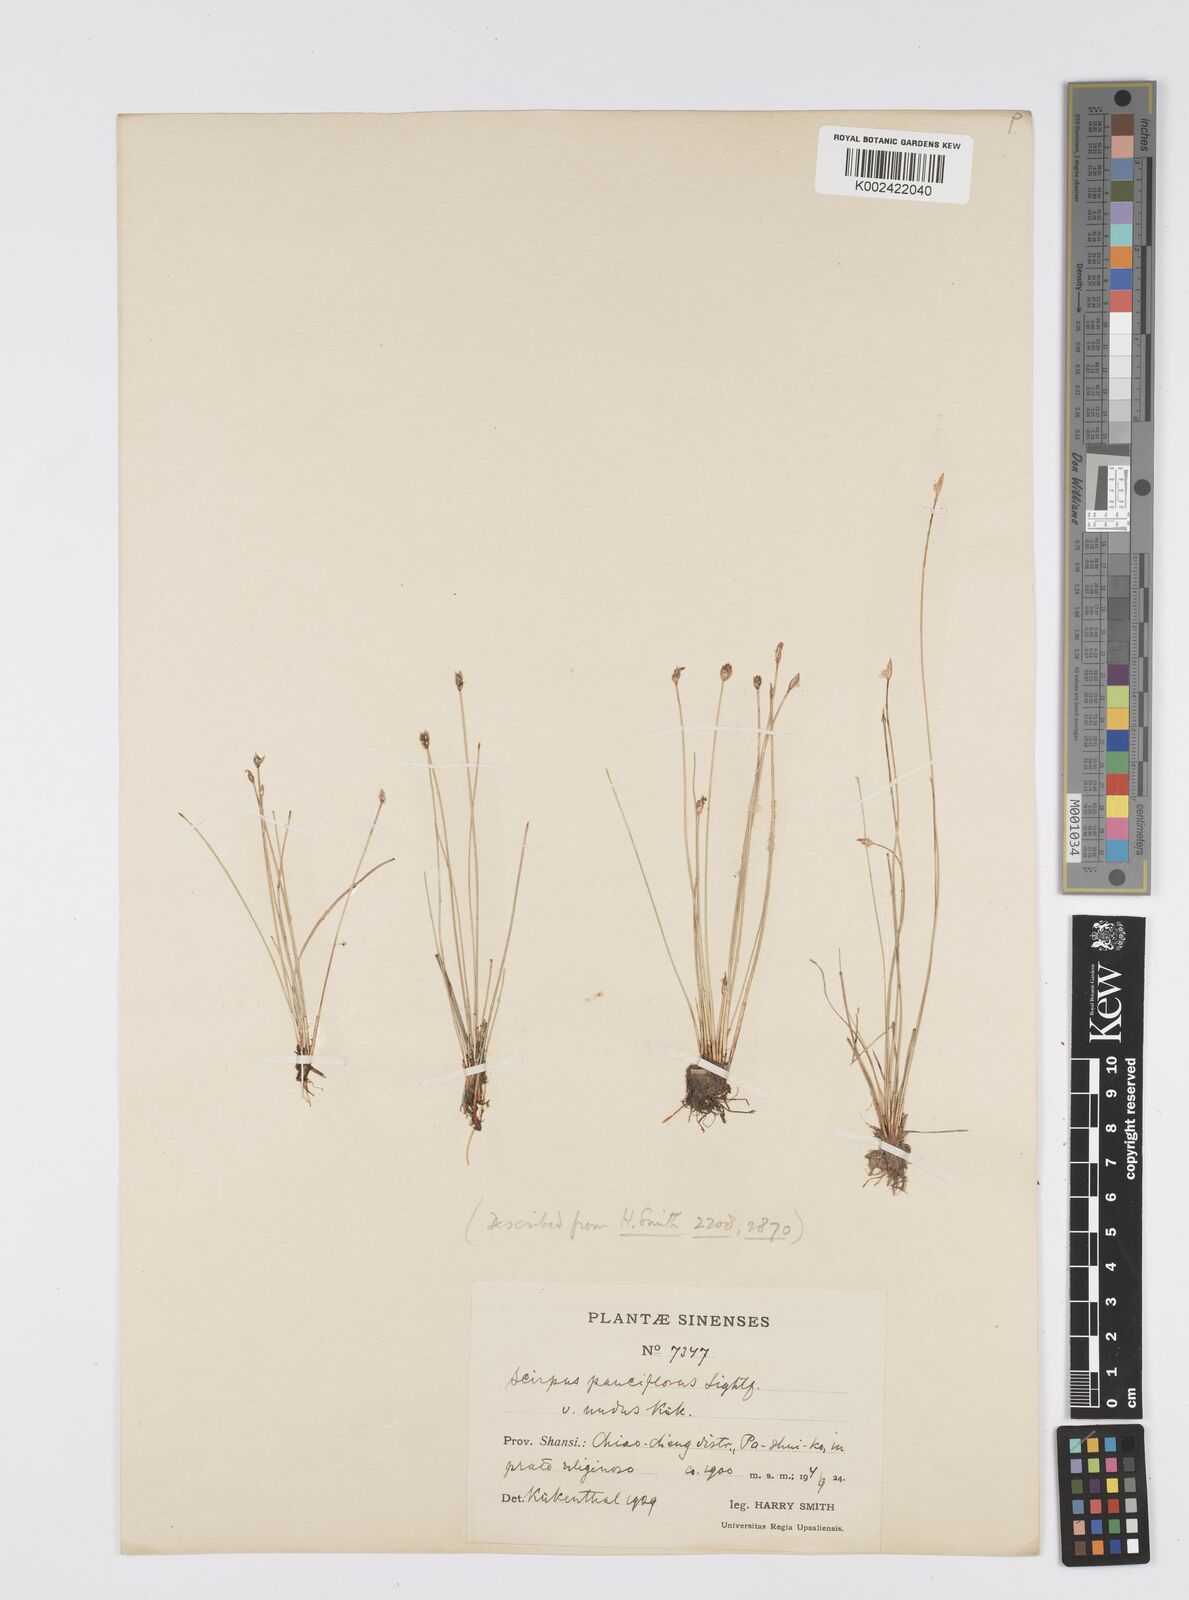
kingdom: Plantae
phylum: Tracheophyta
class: Liliopsida
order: Poales
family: Cyperaceae
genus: Eleocharis
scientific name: Eleocharis quinqueflora
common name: Few-flowered spike-rush
